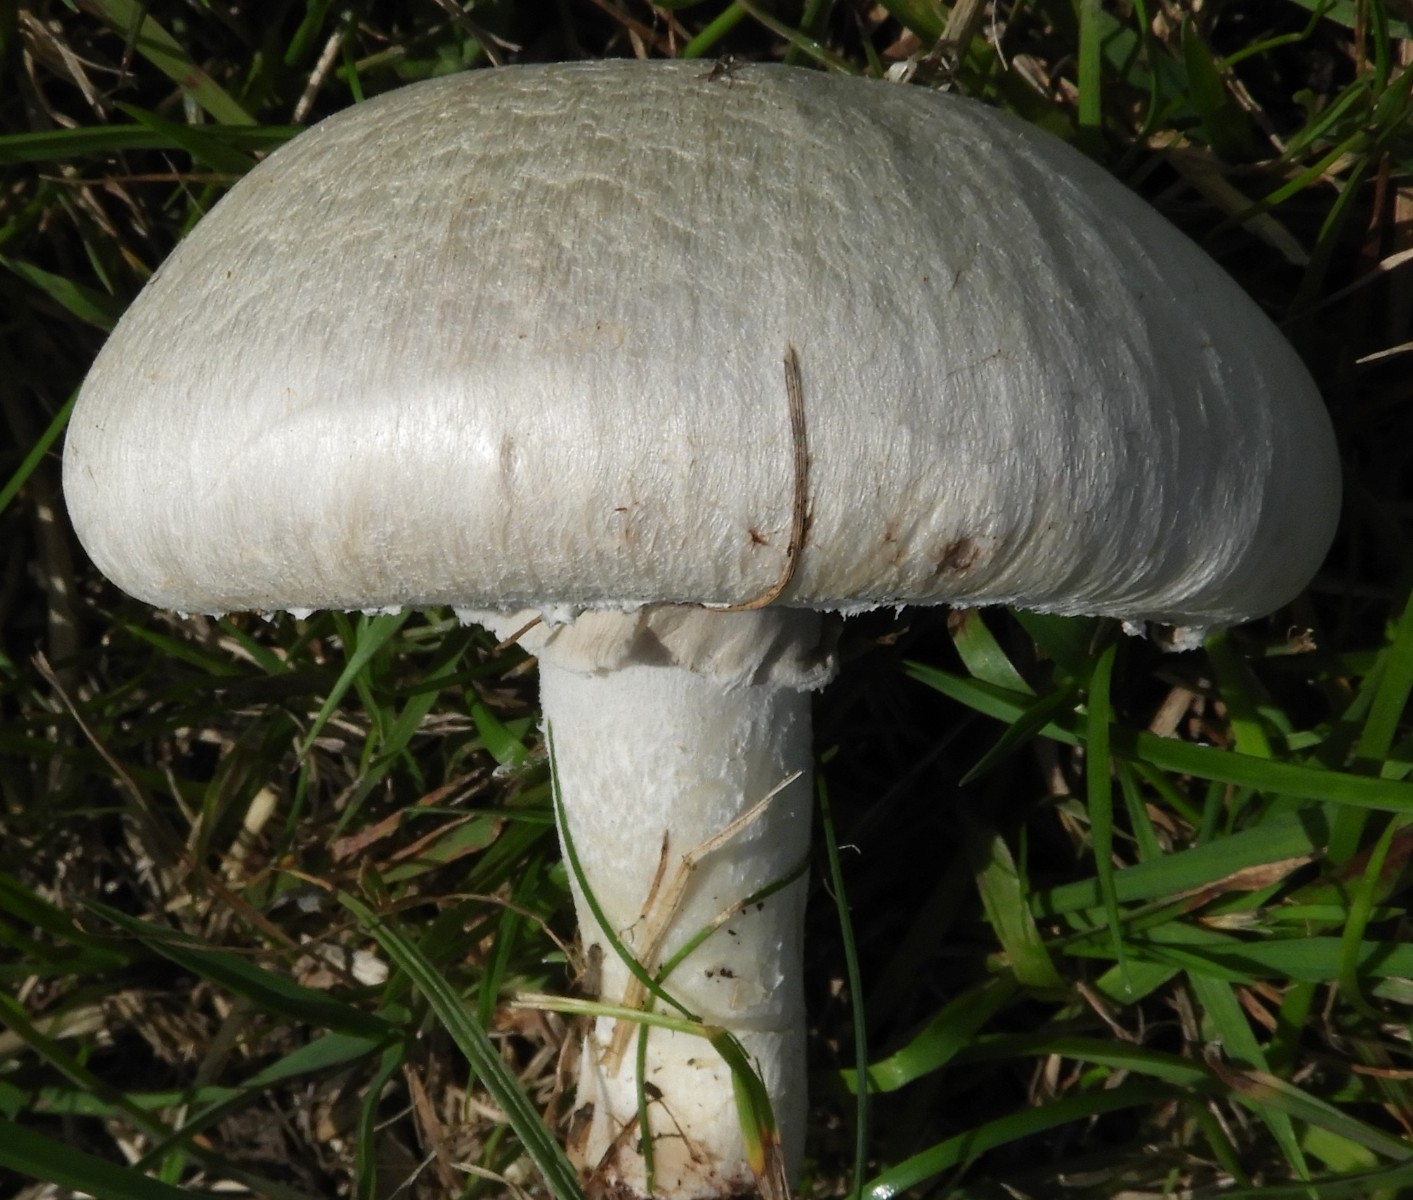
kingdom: Fungi
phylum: Basidiomycota
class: Agaricomycetes
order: Agaricales
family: Agaricaceae
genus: Agaricus
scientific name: Agaricus campestris
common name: mark-champignon
